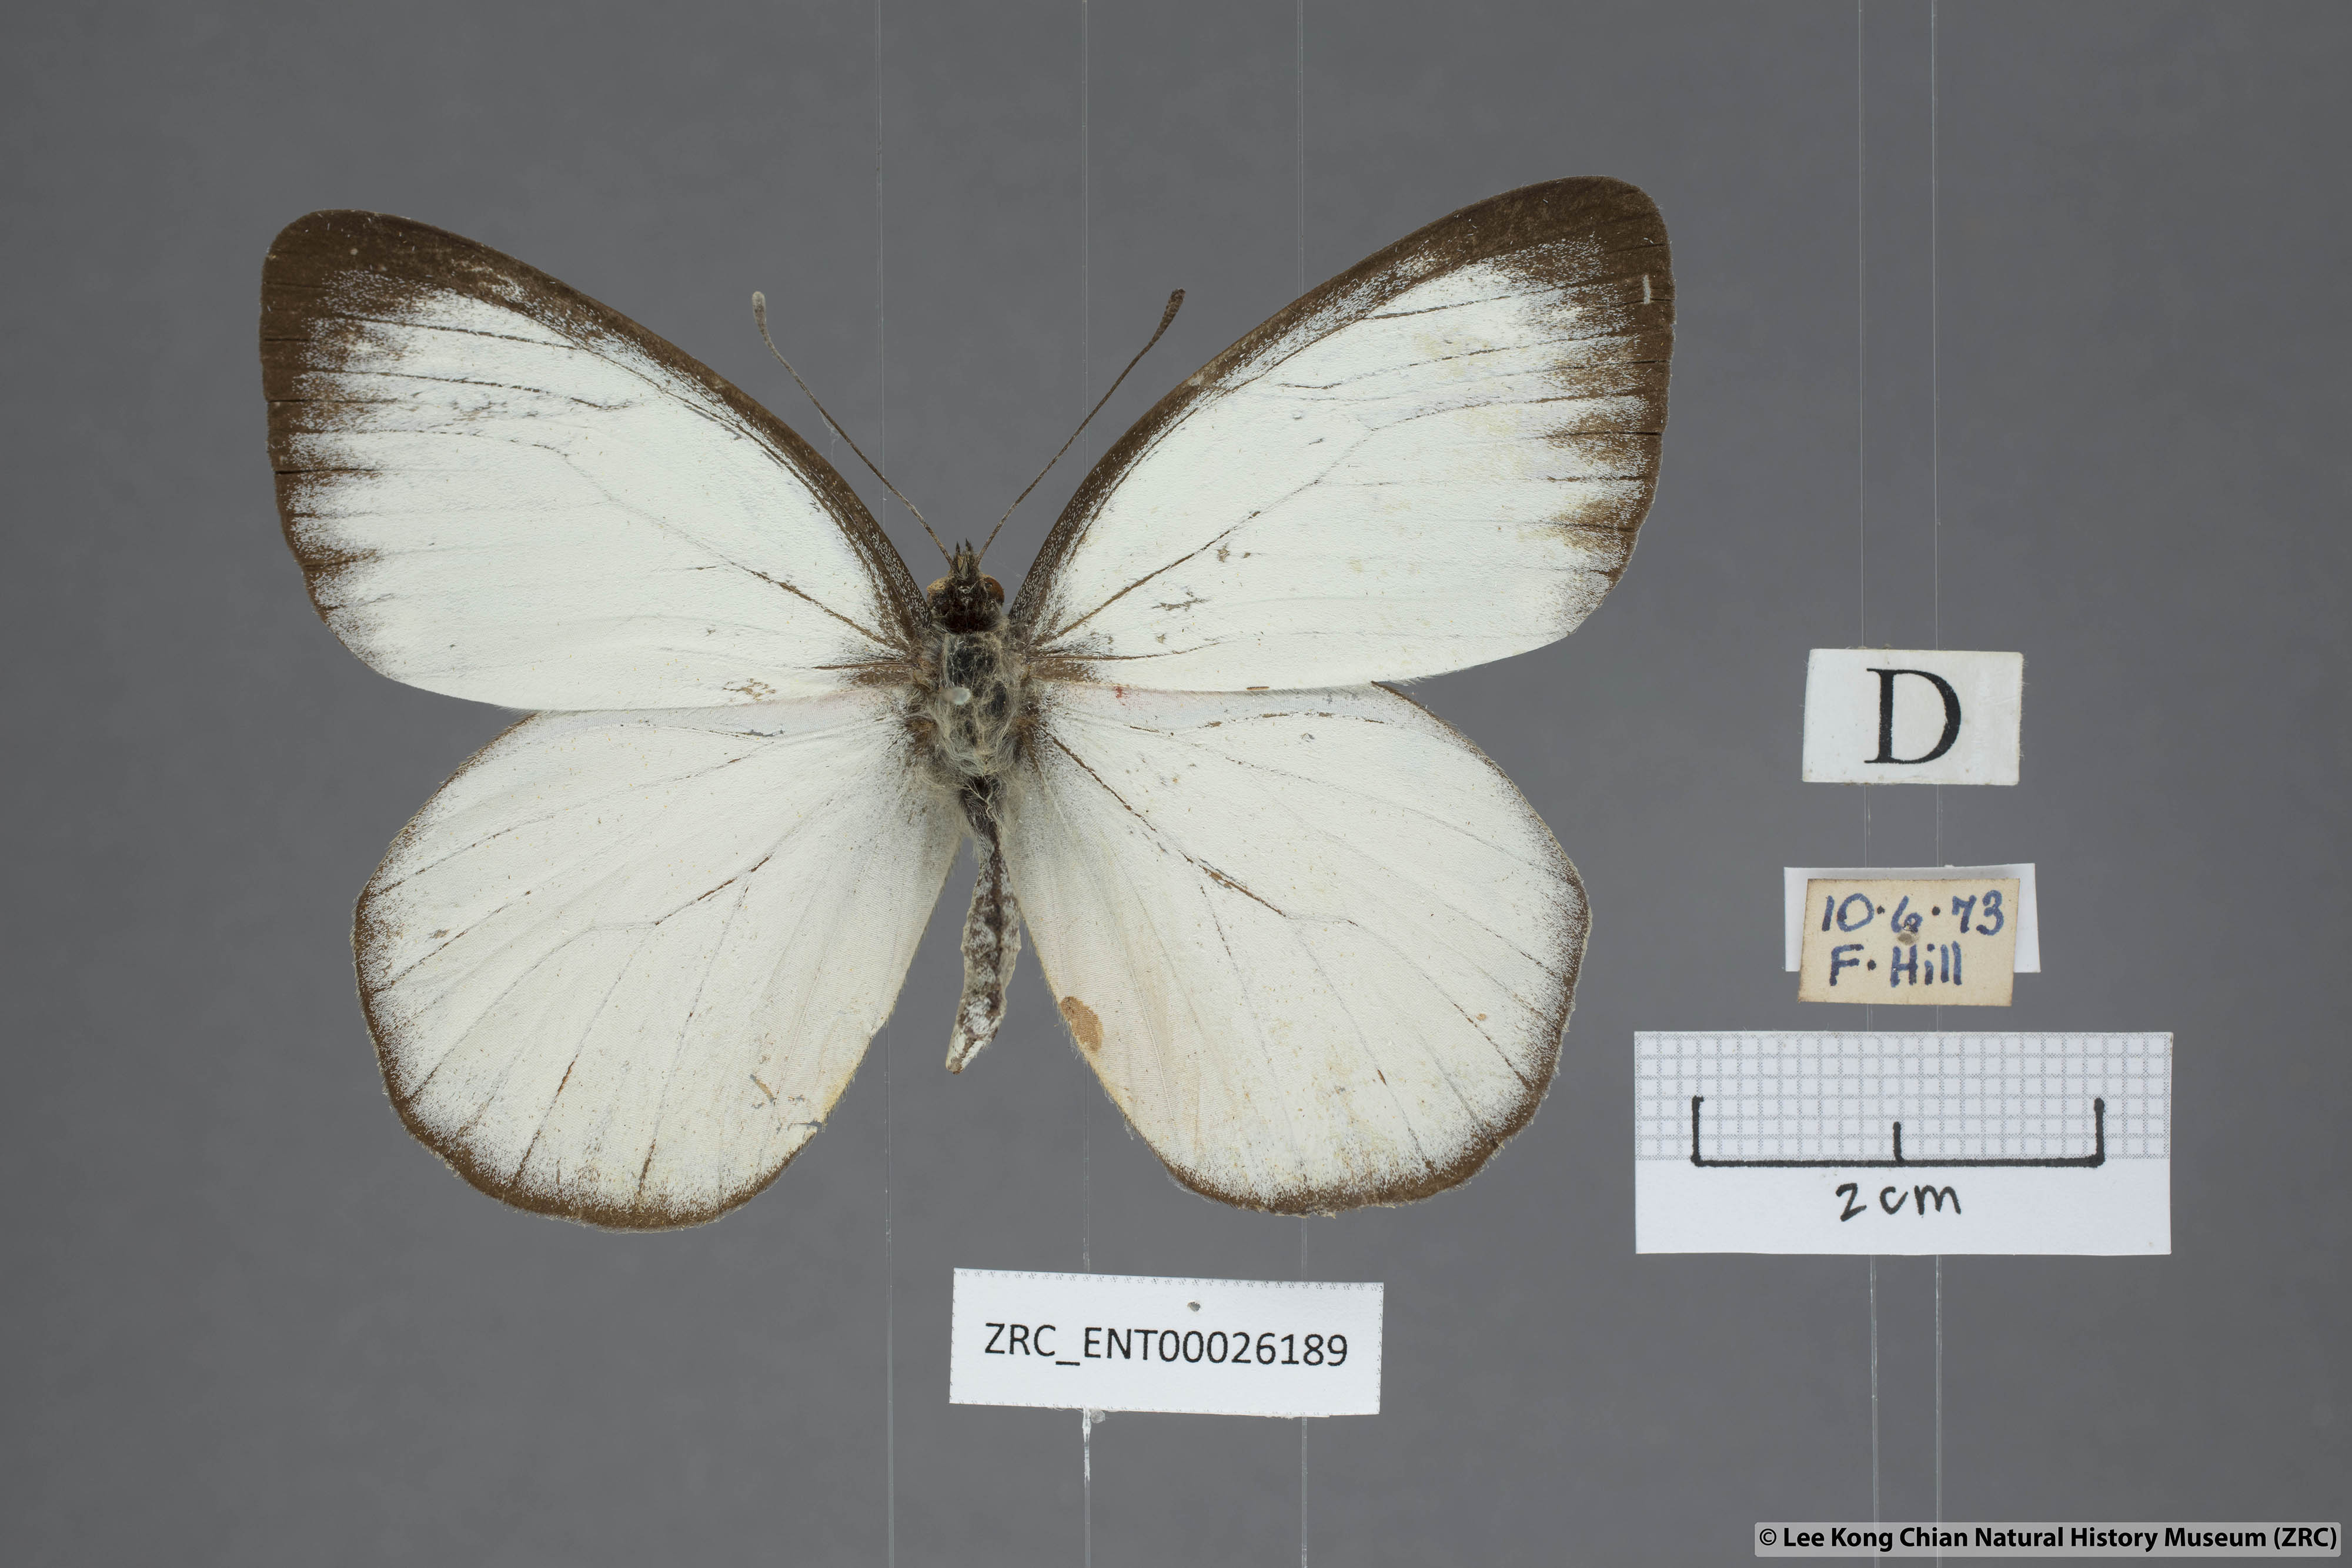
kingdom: Animalia
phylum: Arthropoda
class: Insecta
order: Lepidoptera
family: Pieridae
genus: Delias
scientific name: Delias descombesi
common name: Red-spot jezebel
